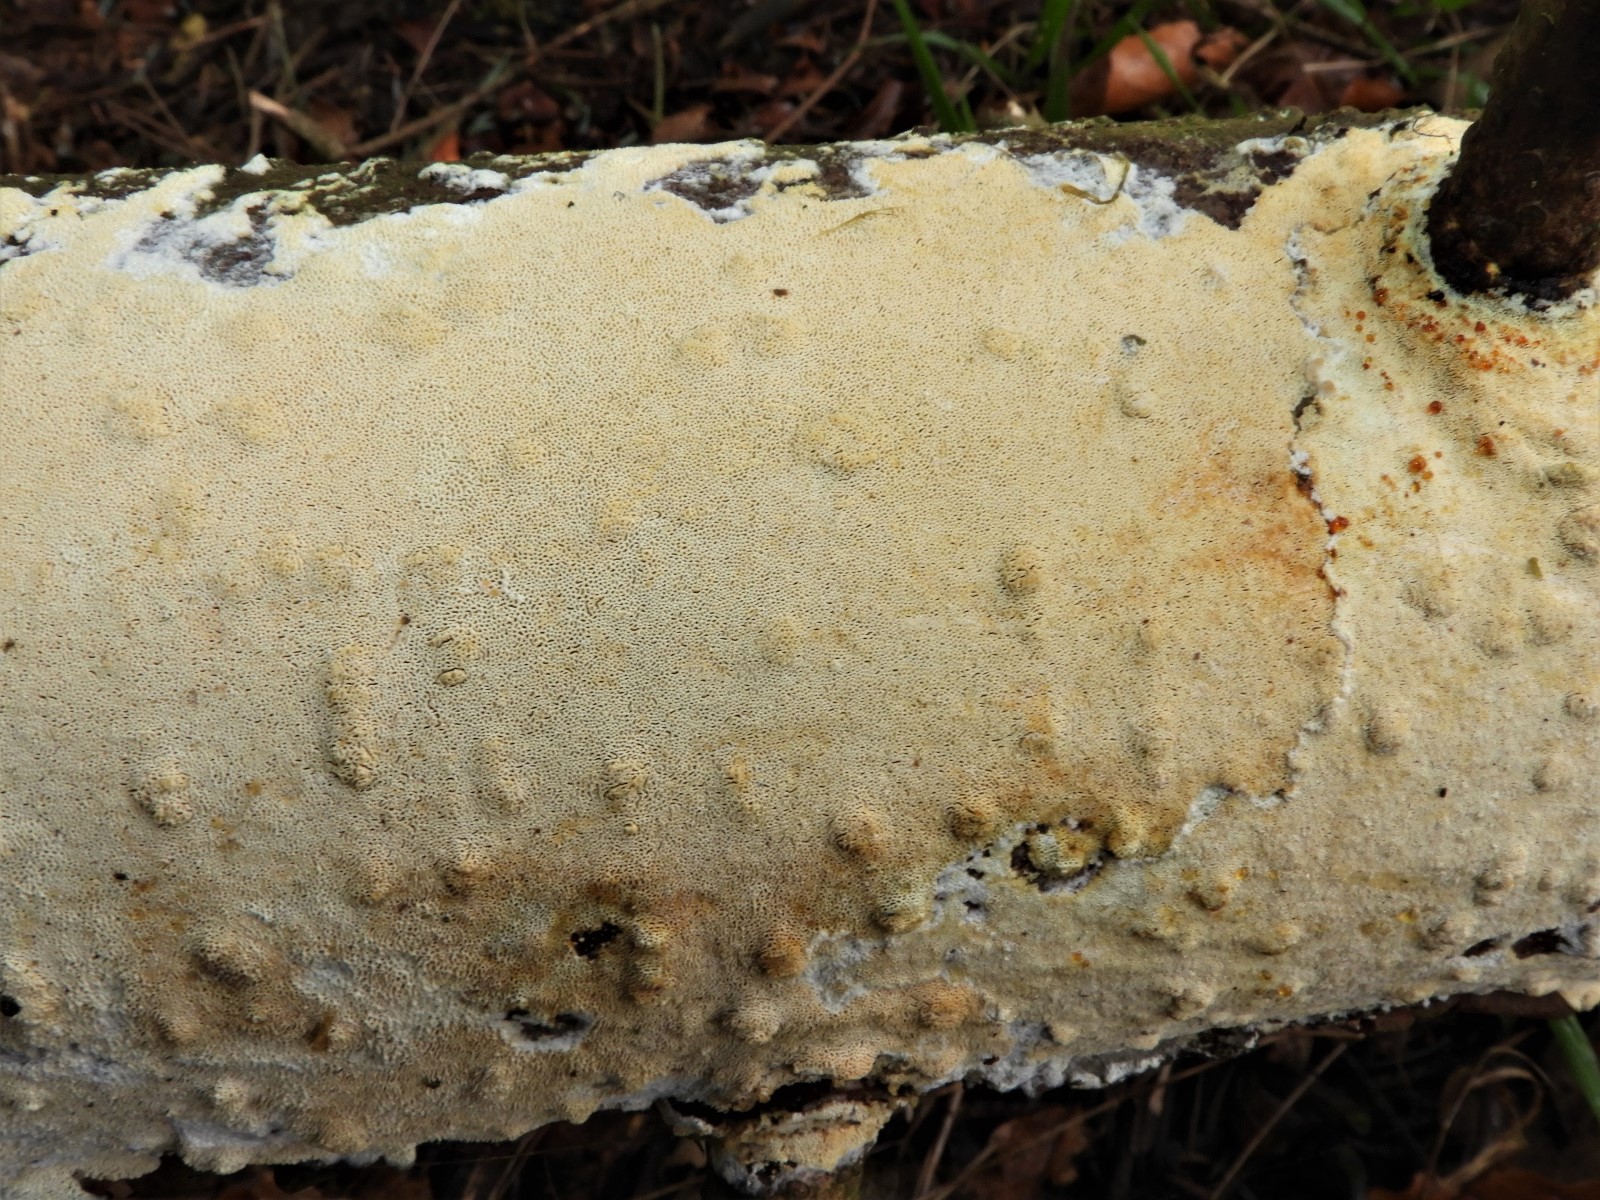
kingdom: Fungi
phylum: Basidiomycota
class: Agaricomycetes
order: Hymenochaetales
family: Schizoporaceae
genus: Xylodon
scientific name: Xylodon
